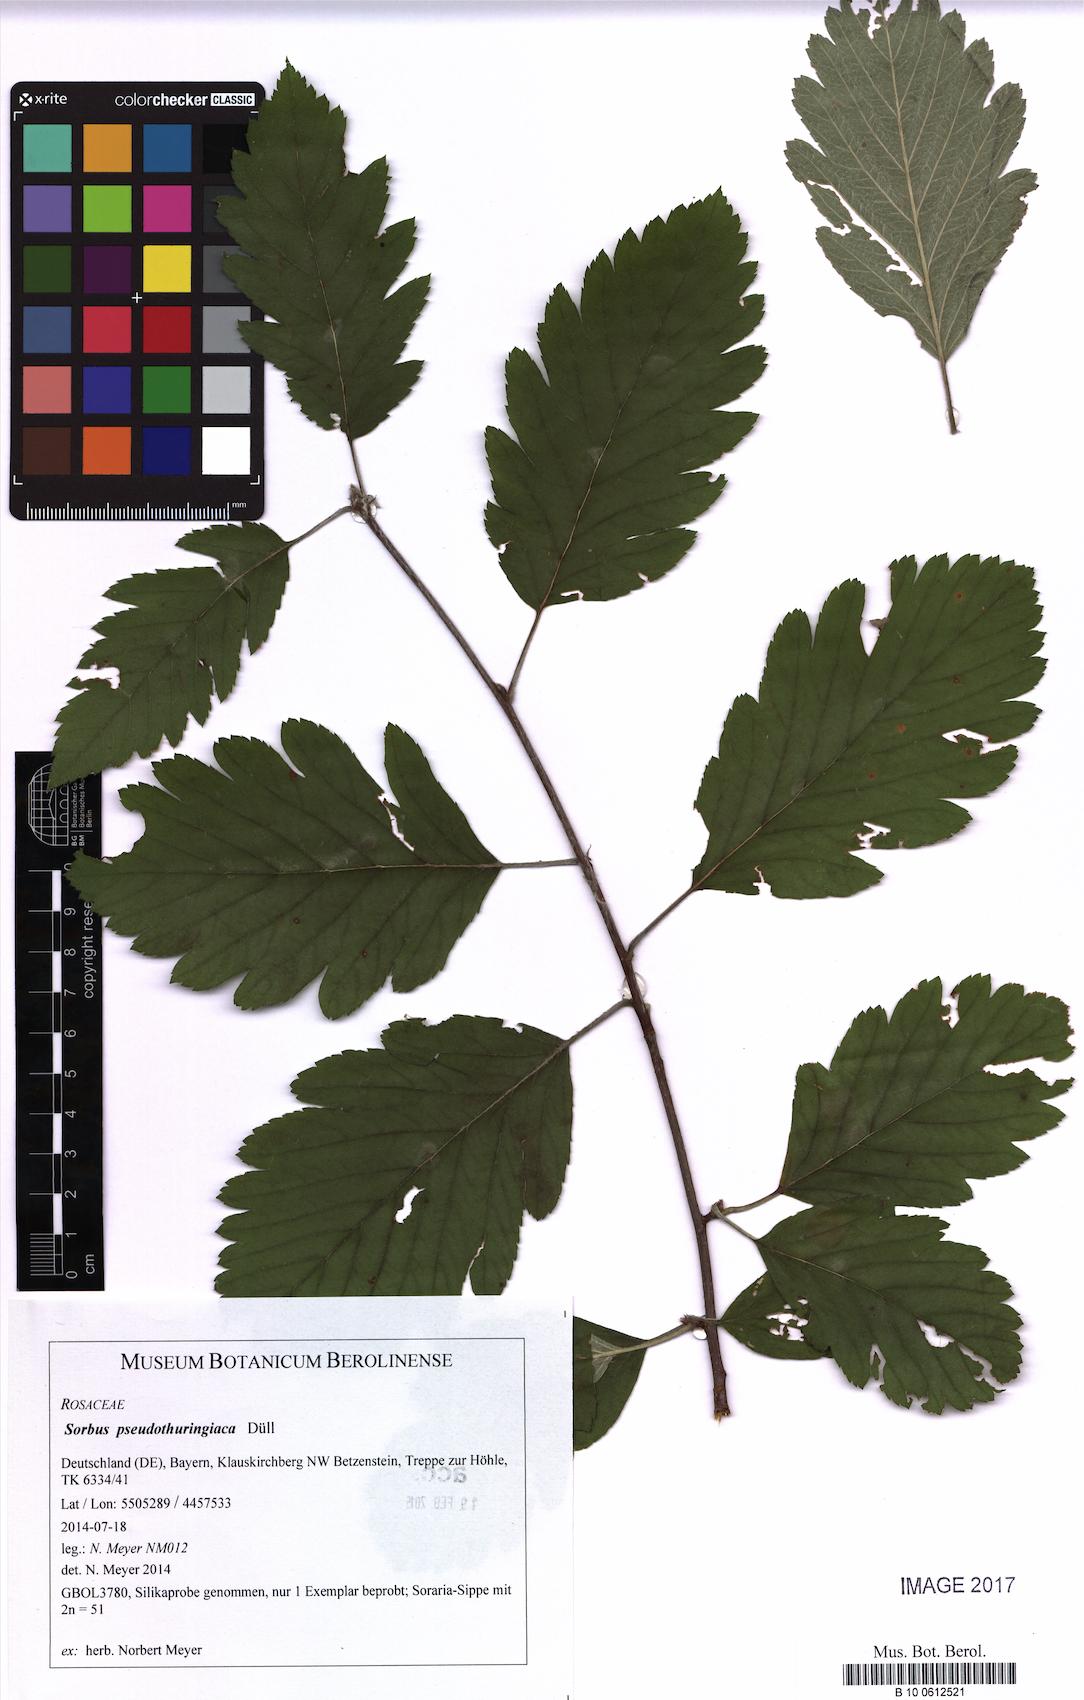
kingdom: Plantae
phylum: Tracheophyta
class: Magnoliopsida
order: Rosales
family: Rosaceae
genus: Hedlundia
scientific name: Hedlundia pseudothuringiaca
